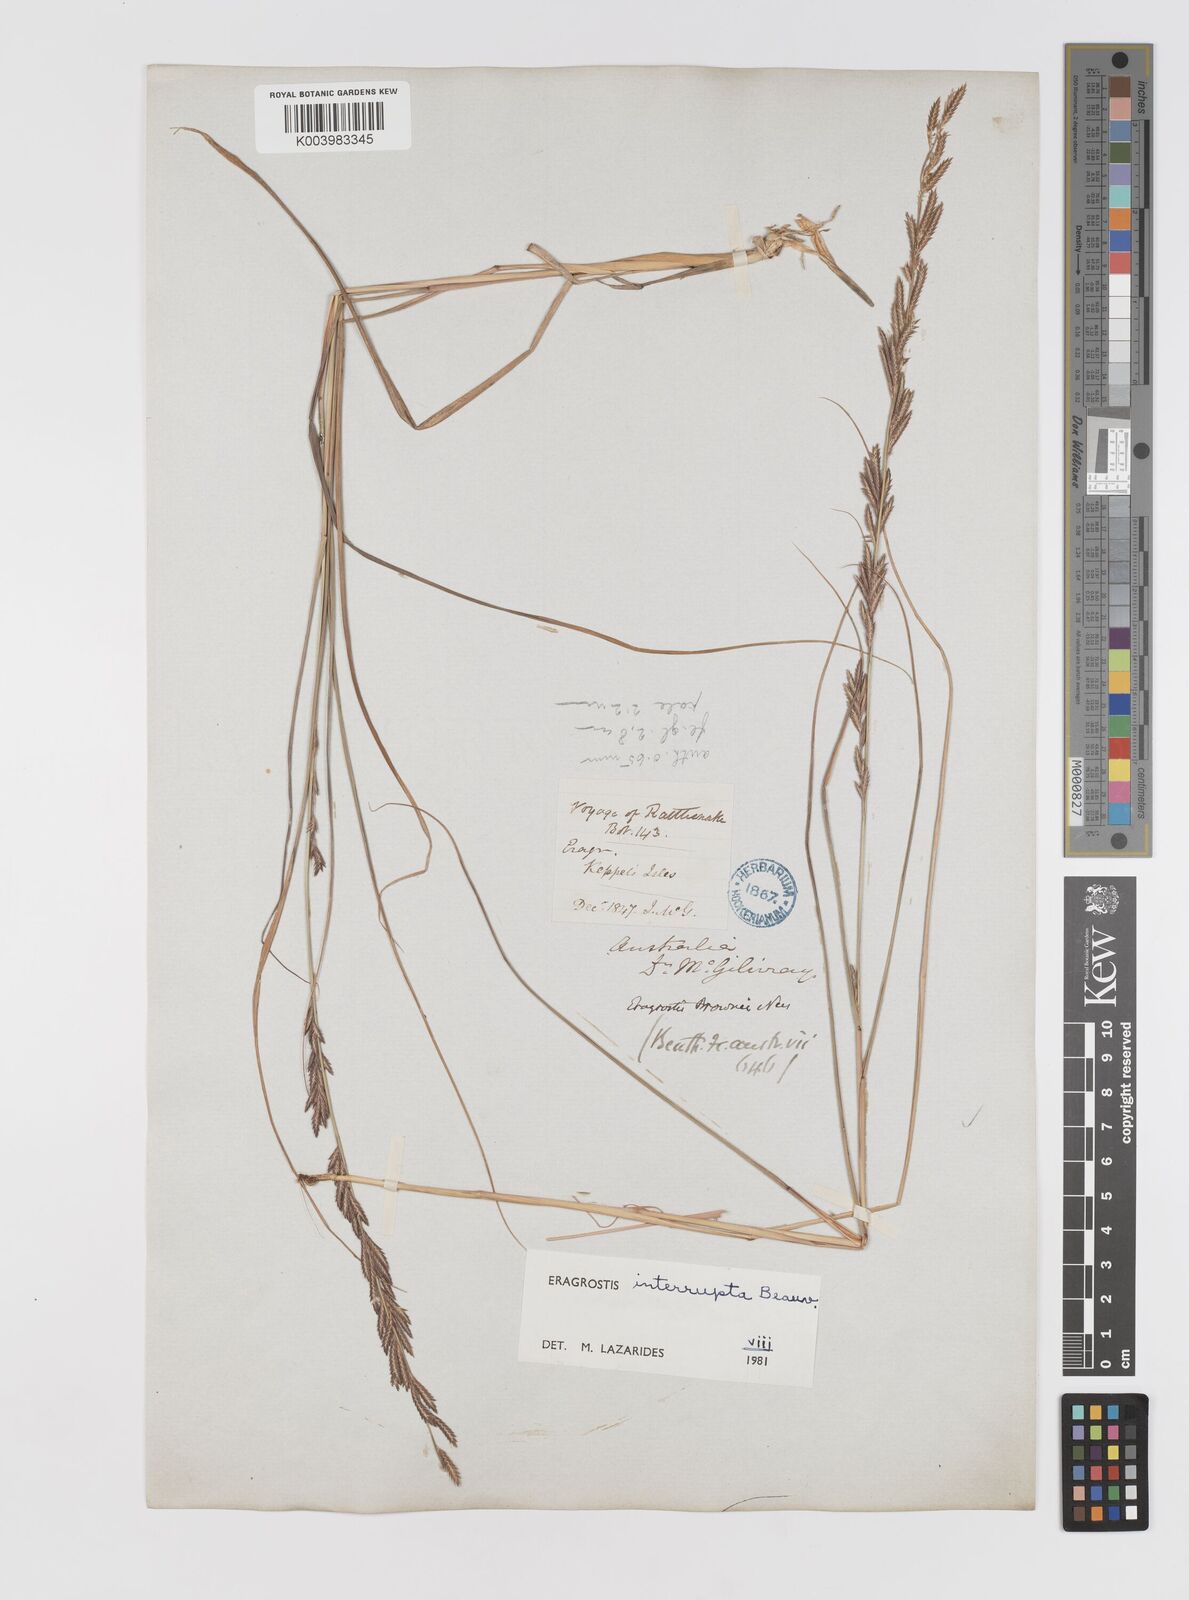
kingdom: Plantae
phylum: Tracheophyta
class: Liliopsida
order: Poales
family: Poaceae
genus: Eragrostis
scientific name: Eragrostis interrupta
